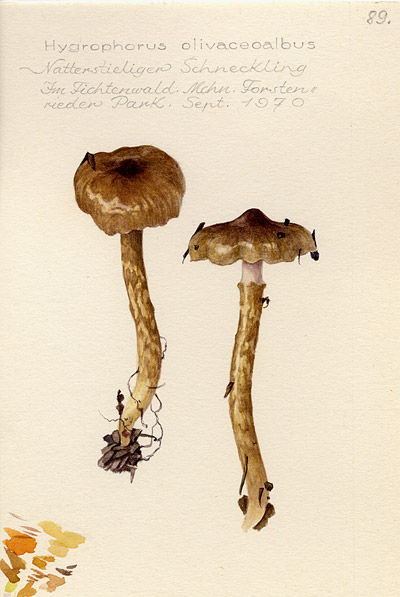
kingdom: Fungi
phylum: Basidiomycota
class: Agaricomycetes
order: Agaricales
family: Hygrophoraceae
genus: Hygrophorus
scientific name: Hygrophorus olivaceoalbus
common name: Olive wax cap
